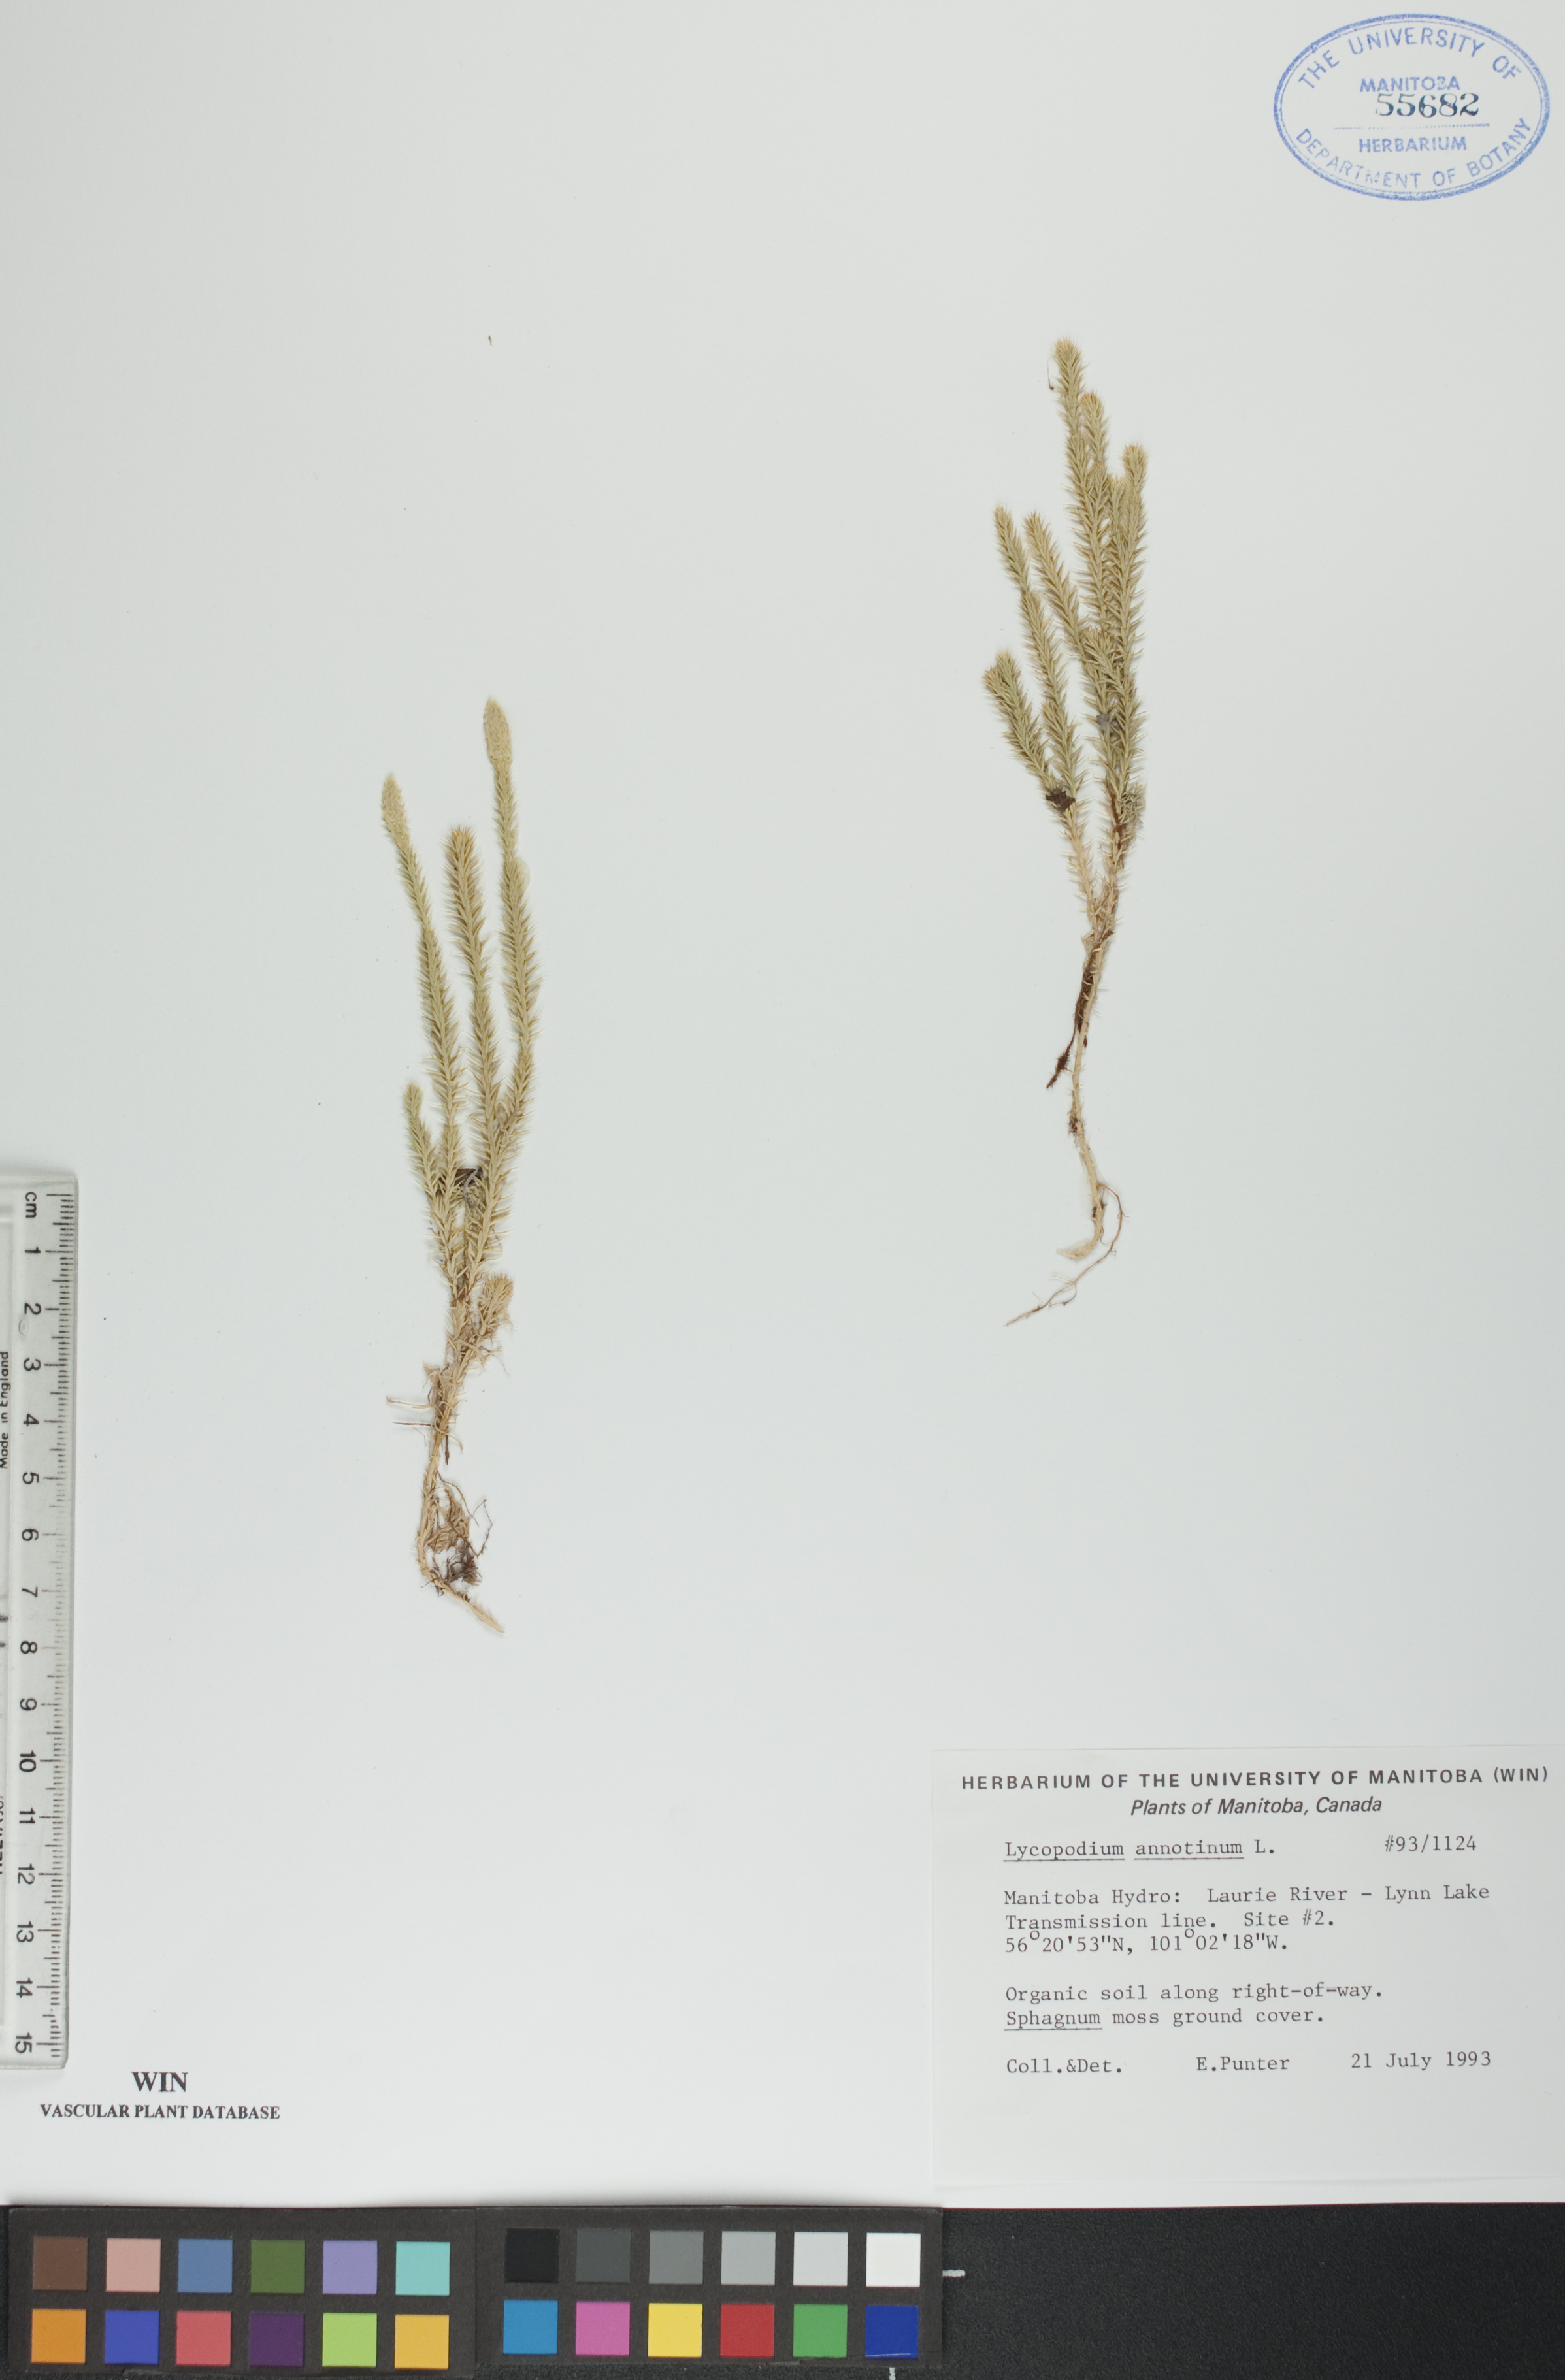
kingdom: Plantae
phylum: Tracheophyta
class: Lycopodiopsida
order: Lycopodiales
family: Lycopodiaceae
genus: Spinulum
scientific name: Spinulum annotinum
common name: Interrupted club-moss
